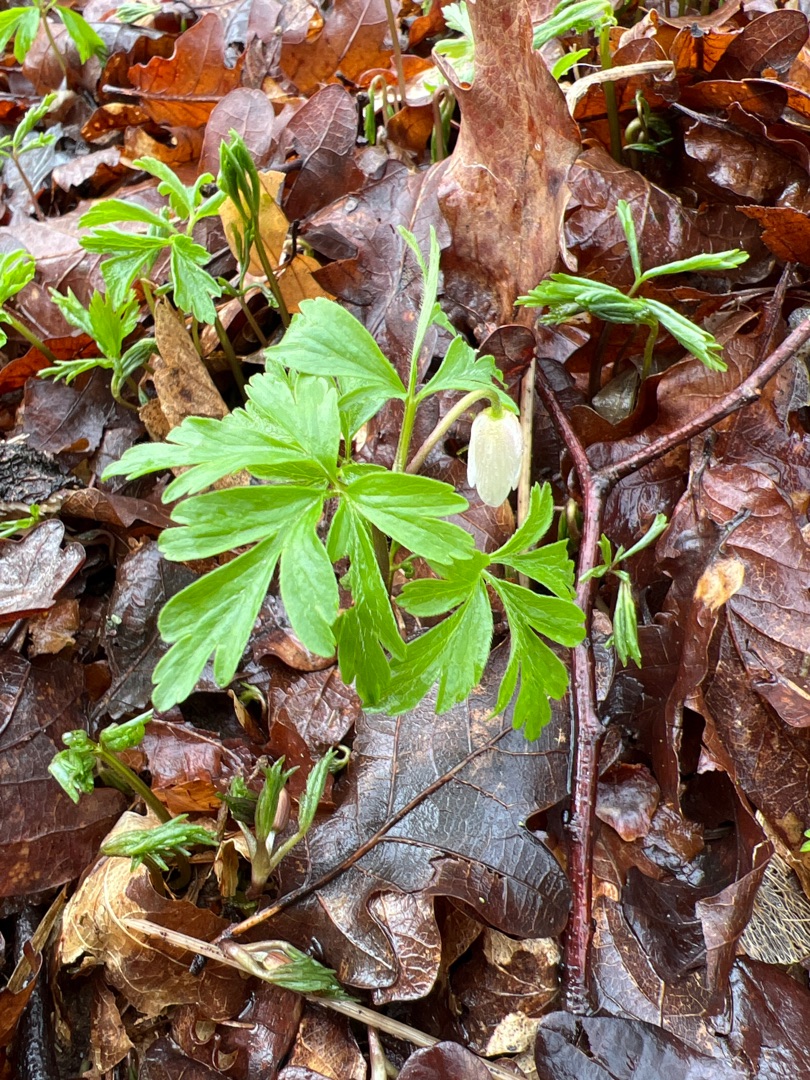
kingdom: Plantae
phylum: Tracheophyta
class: Magnoliopsida
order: Ranunculales
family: Ranunculaceae
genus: Anemone
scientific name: Anemone nemorosa
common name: Hvid anemone
